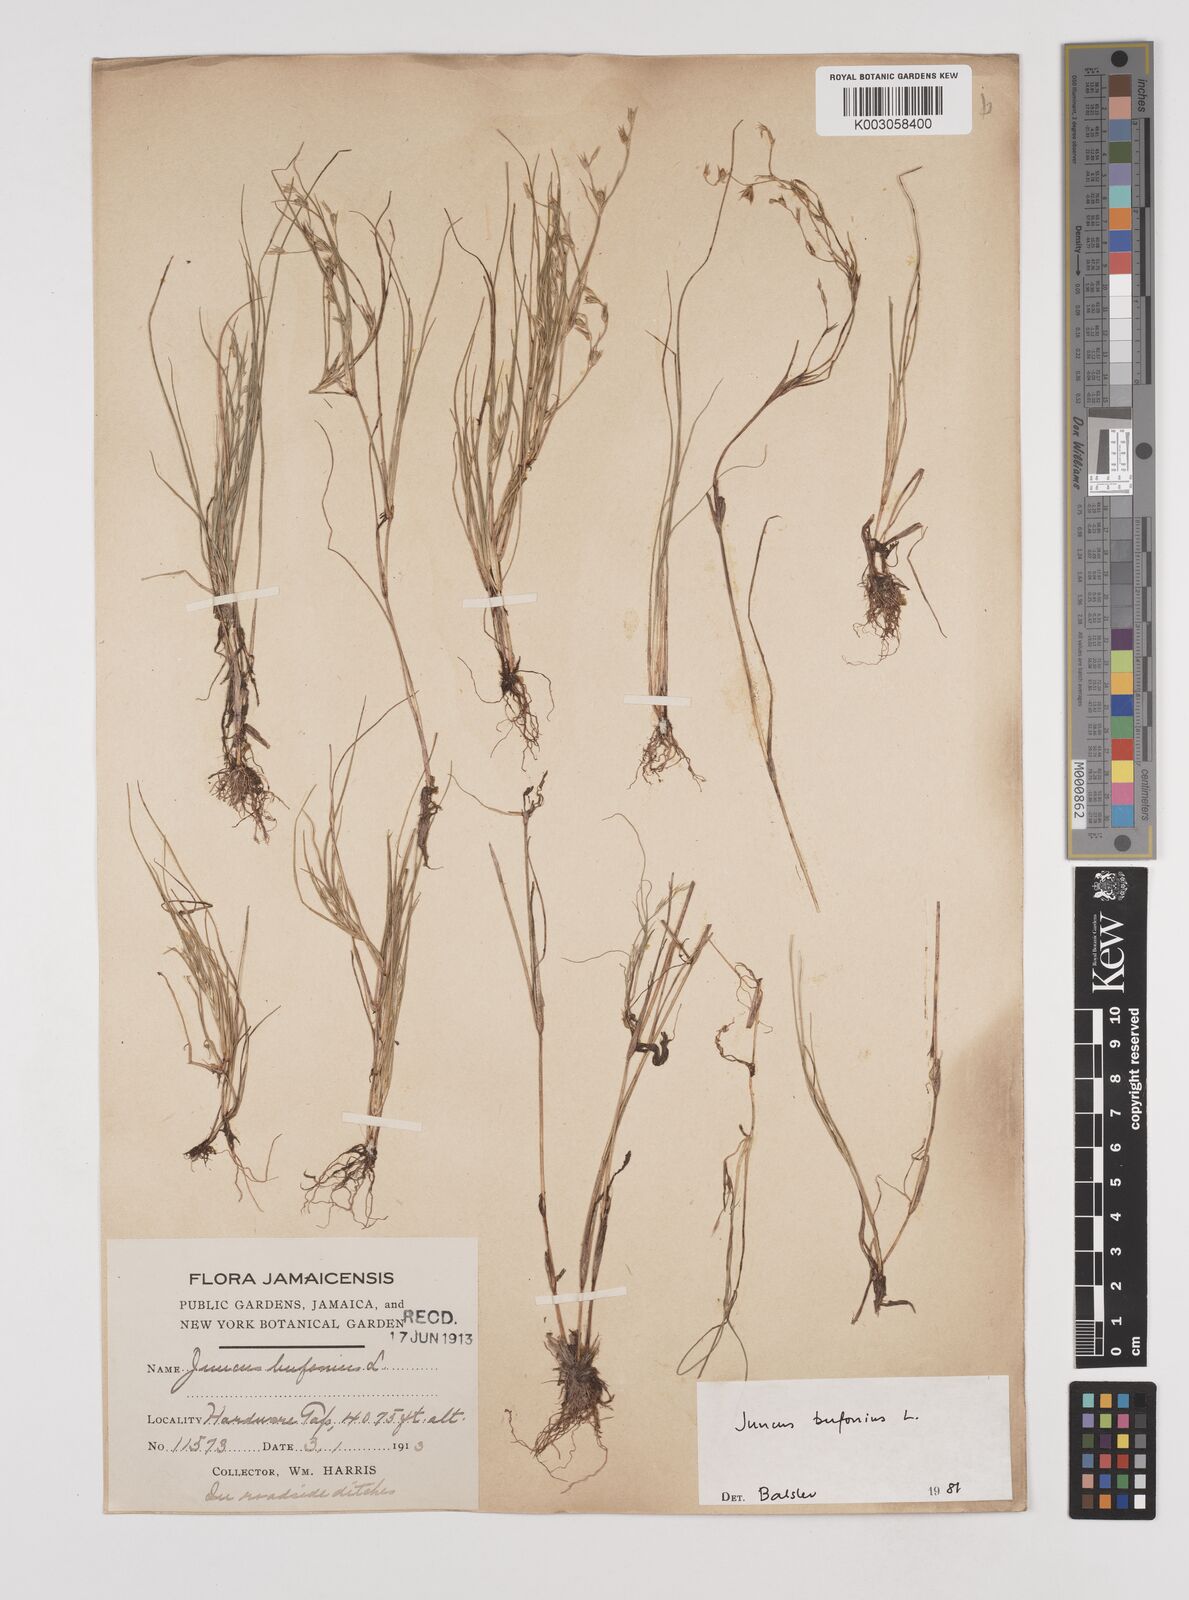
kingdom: Plantae
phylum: Tracheophyta
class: Liliopsida
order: Poales
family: Juncaceae
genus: Juncus
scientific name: Juncus bufonius
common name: Toad rush
